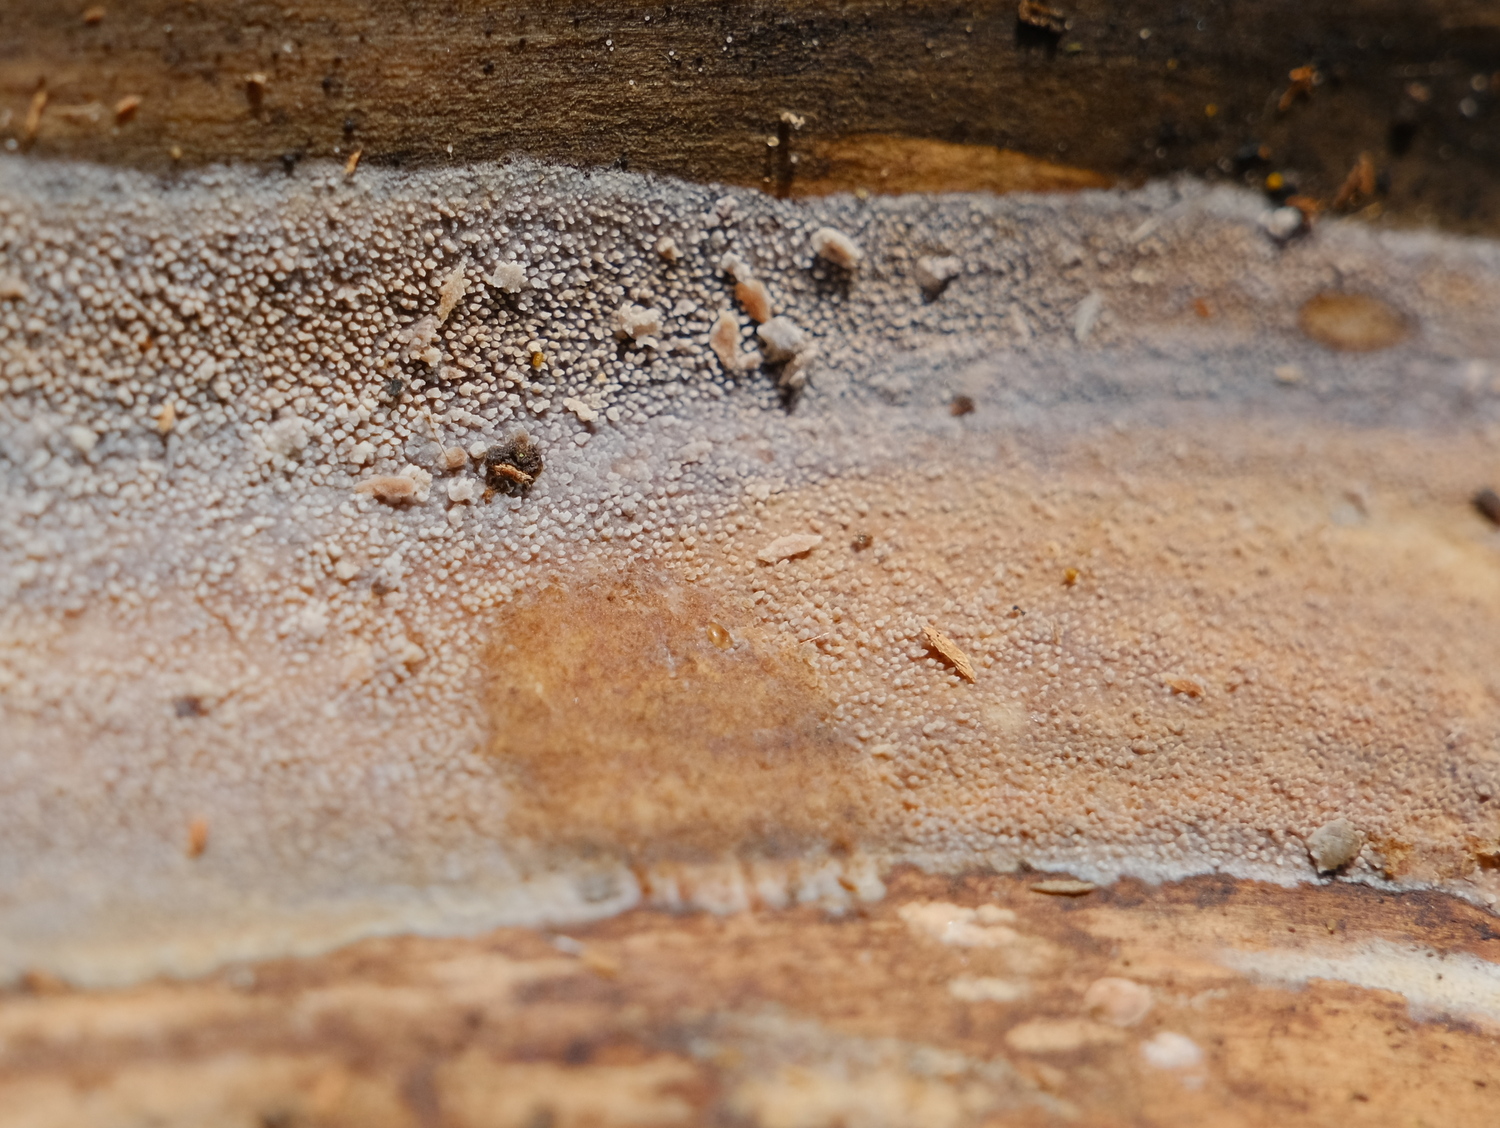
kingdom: Fungi
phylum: Basidiomycota
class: Agaricomycetes
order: Hymenochaetales
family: Rickenellaceae
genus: Resinicium
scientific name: Resinicium bicolor
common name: almindelig vokstand
